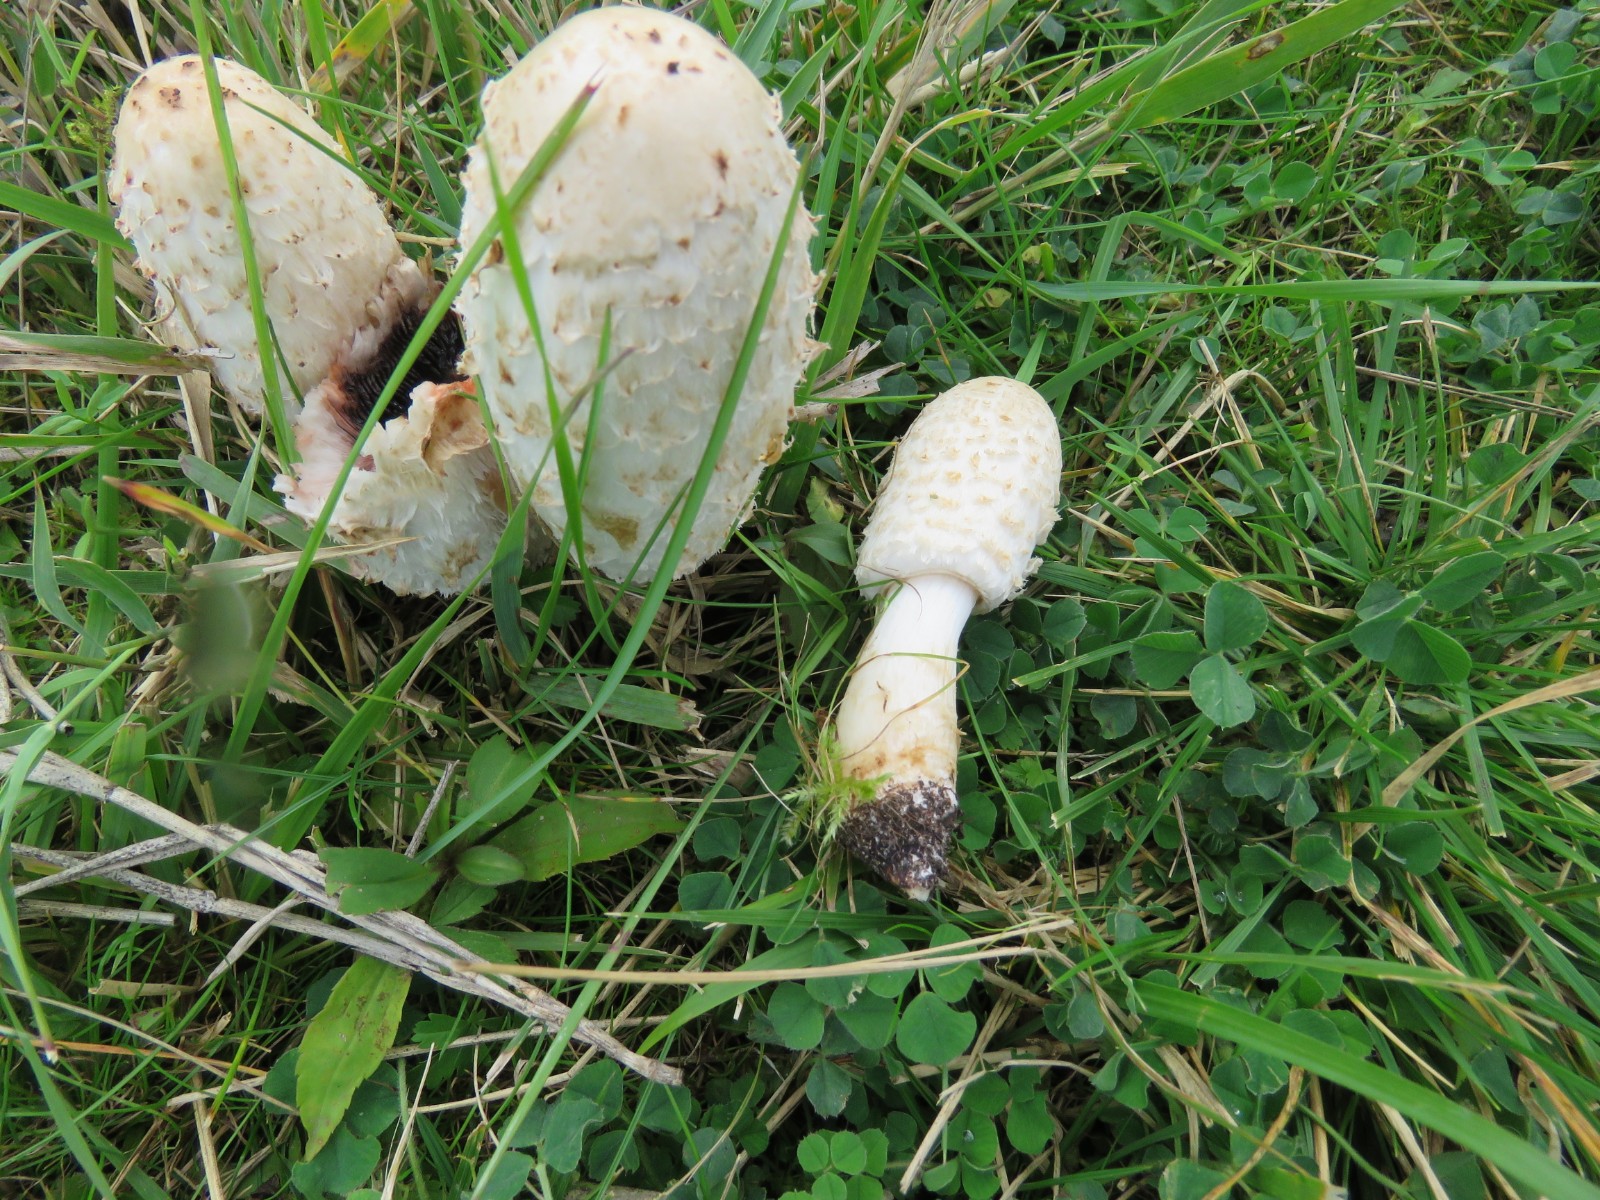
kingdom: Fungi
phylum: Basidiomycota
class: Agaricomycetes
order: Agaricales
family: Agaricaceae
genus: Coprinus
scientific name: Coprinus comatus
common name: stor parykhat
